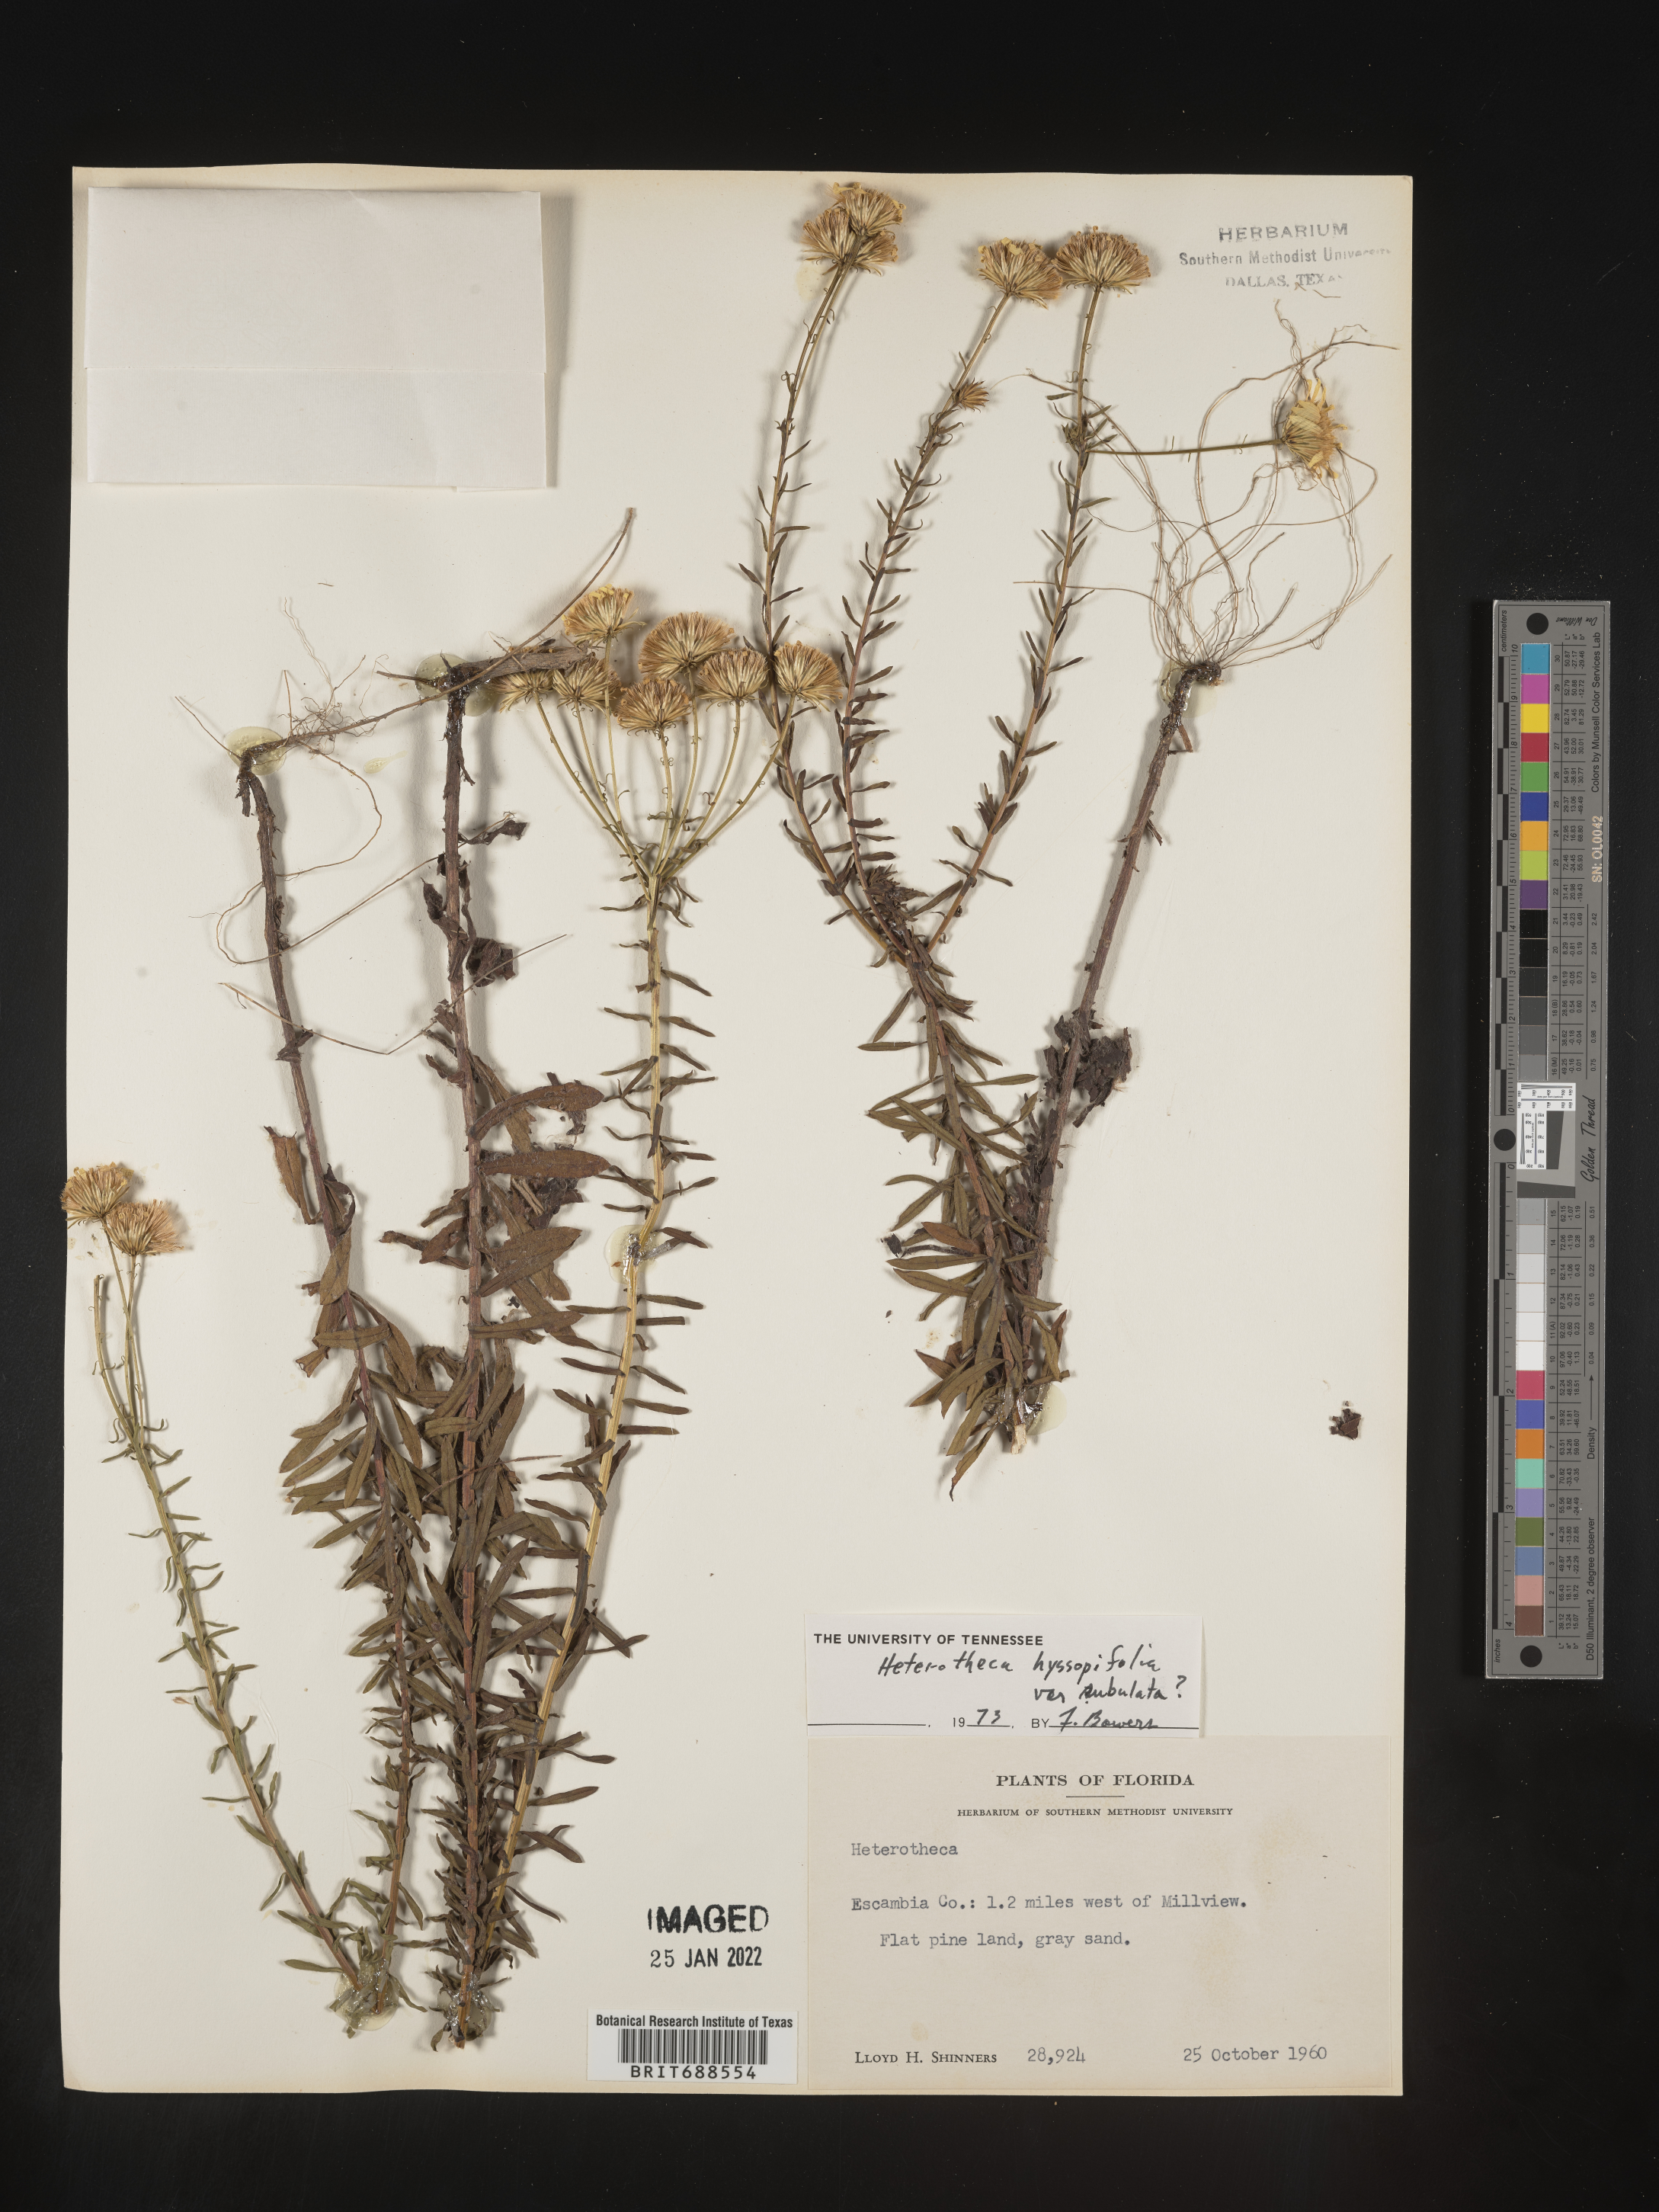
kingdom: Plantae
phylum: Tracheophyta
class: Magnoliopsida
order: Asterales
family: Asteraceae
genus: Chrysopsis
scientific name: Chrysopsis gossypina
